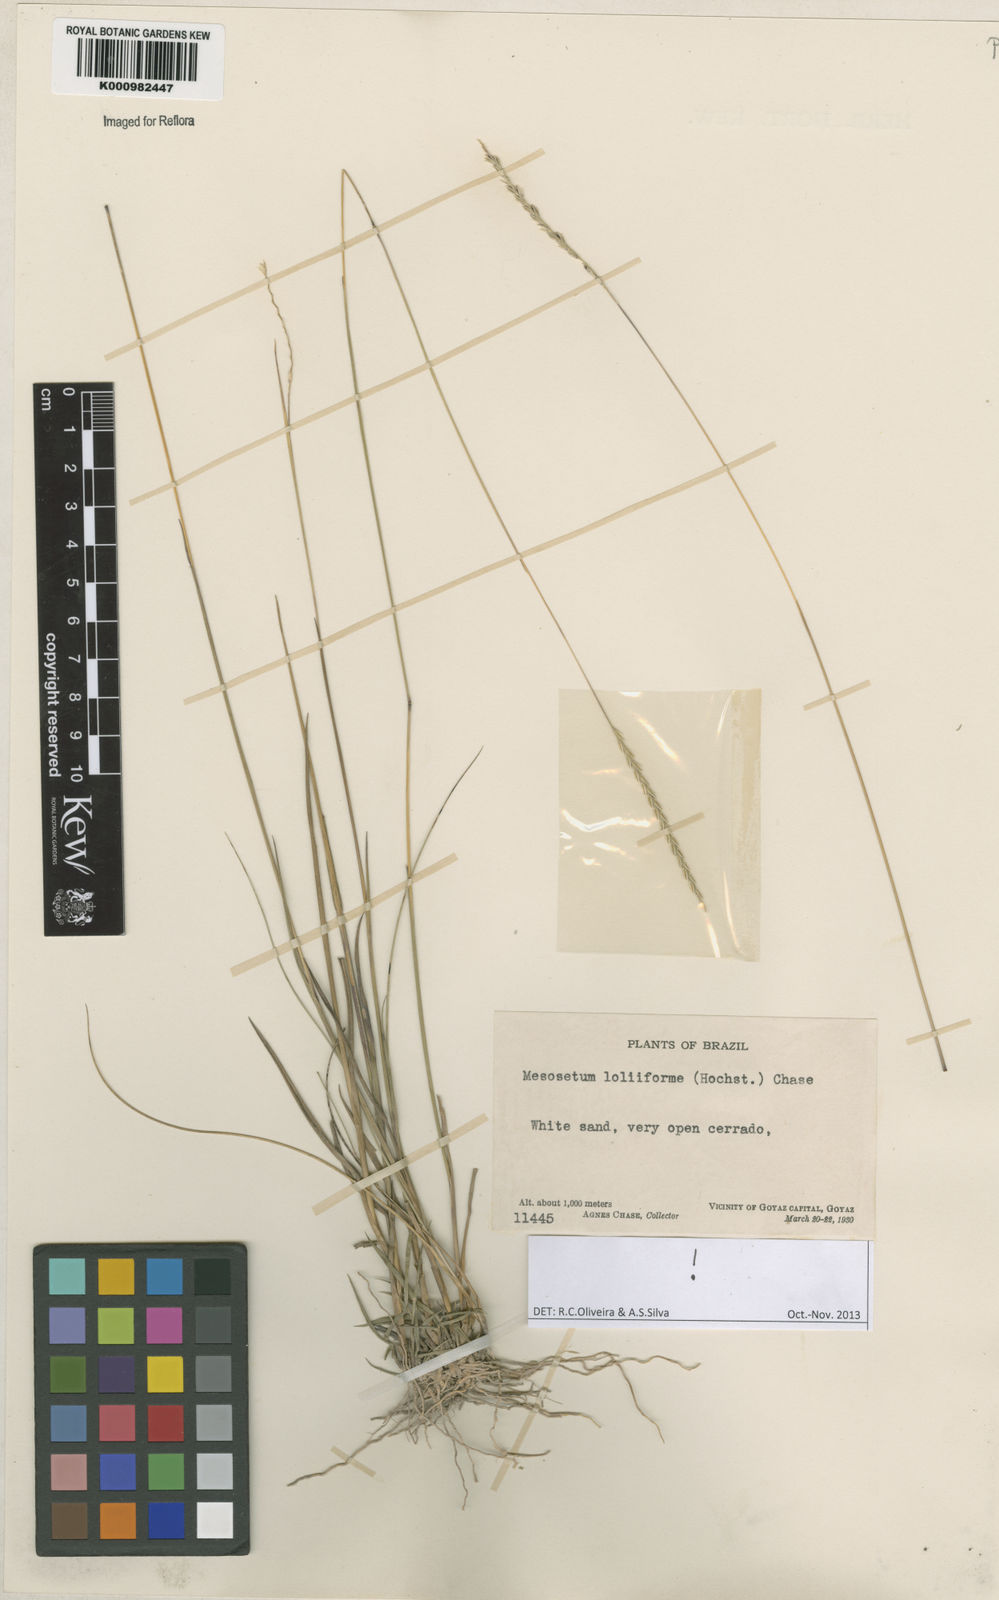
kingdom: Plantae
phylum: Tracheophyta
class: Liliopsida
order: Poales
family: Poaceae
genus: Mesosetum
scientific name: Mesosetum
